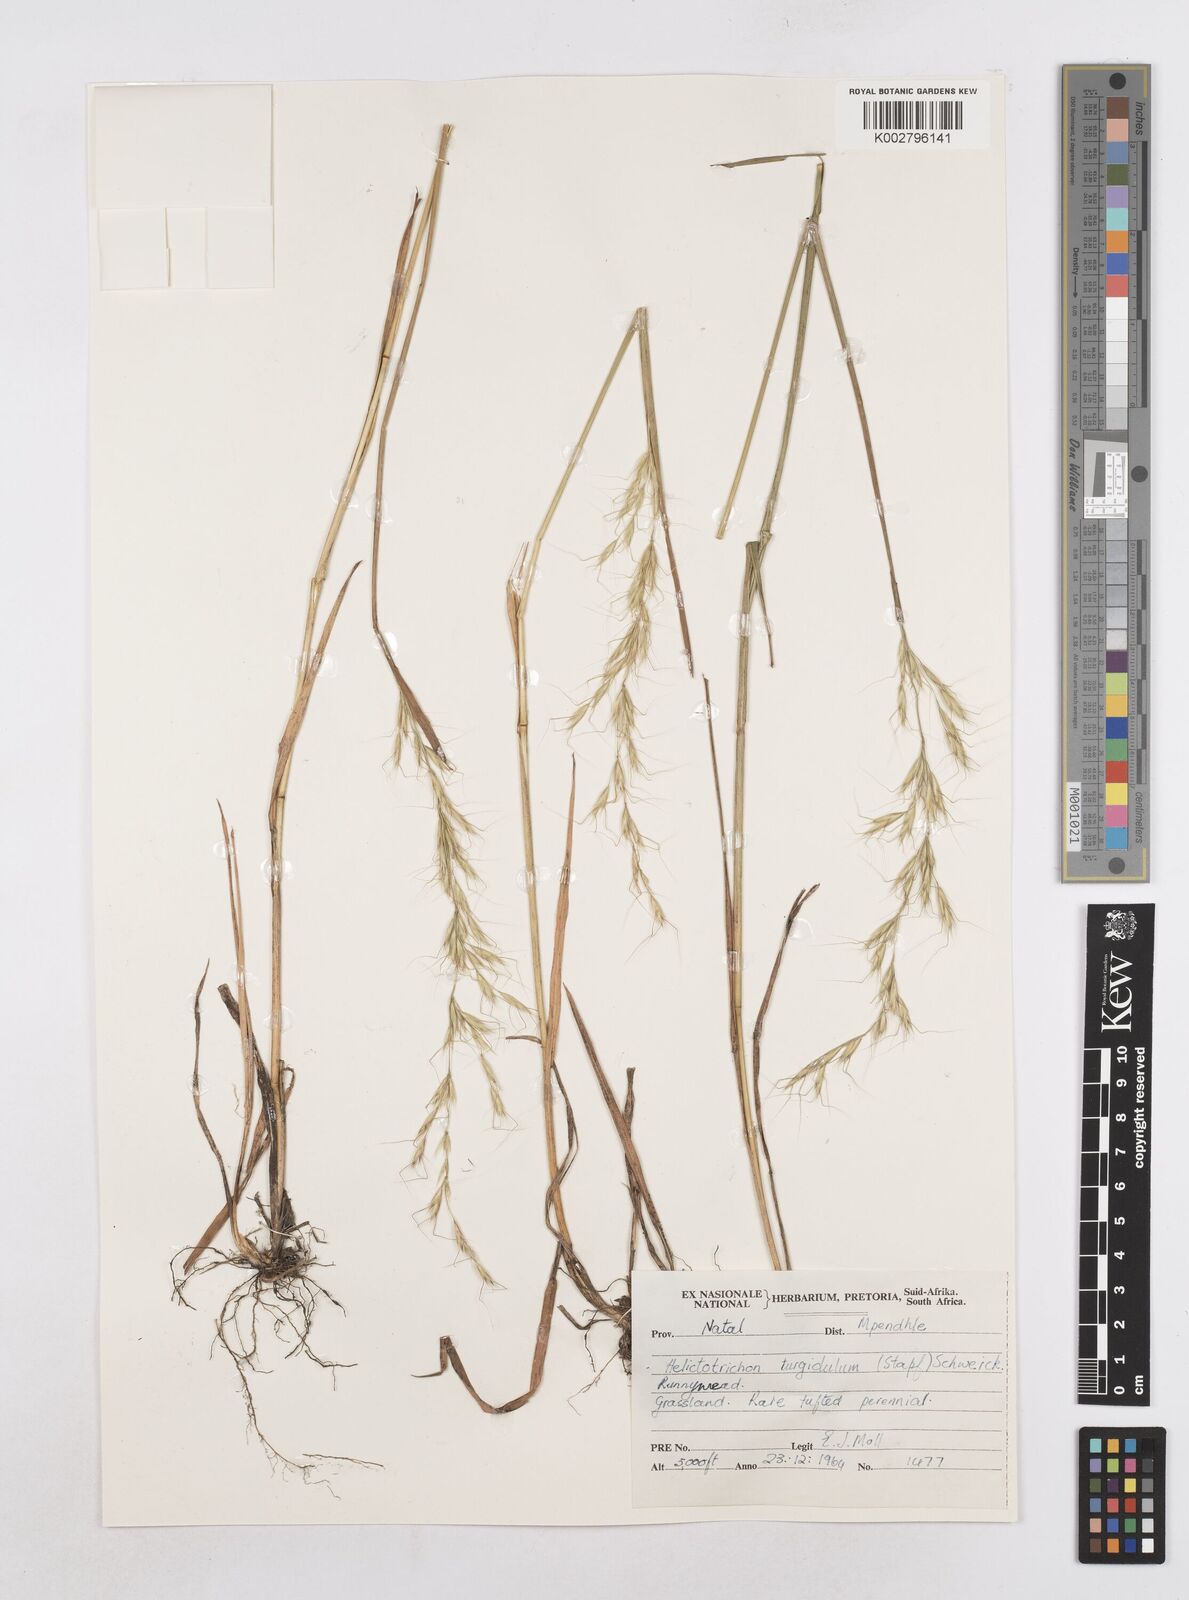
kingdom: Plantae
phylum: Tracheophyta
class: Liliopsida
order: Poales
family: Poaceae
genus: Trisetopsis
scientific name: Trisetopsis imberbis
